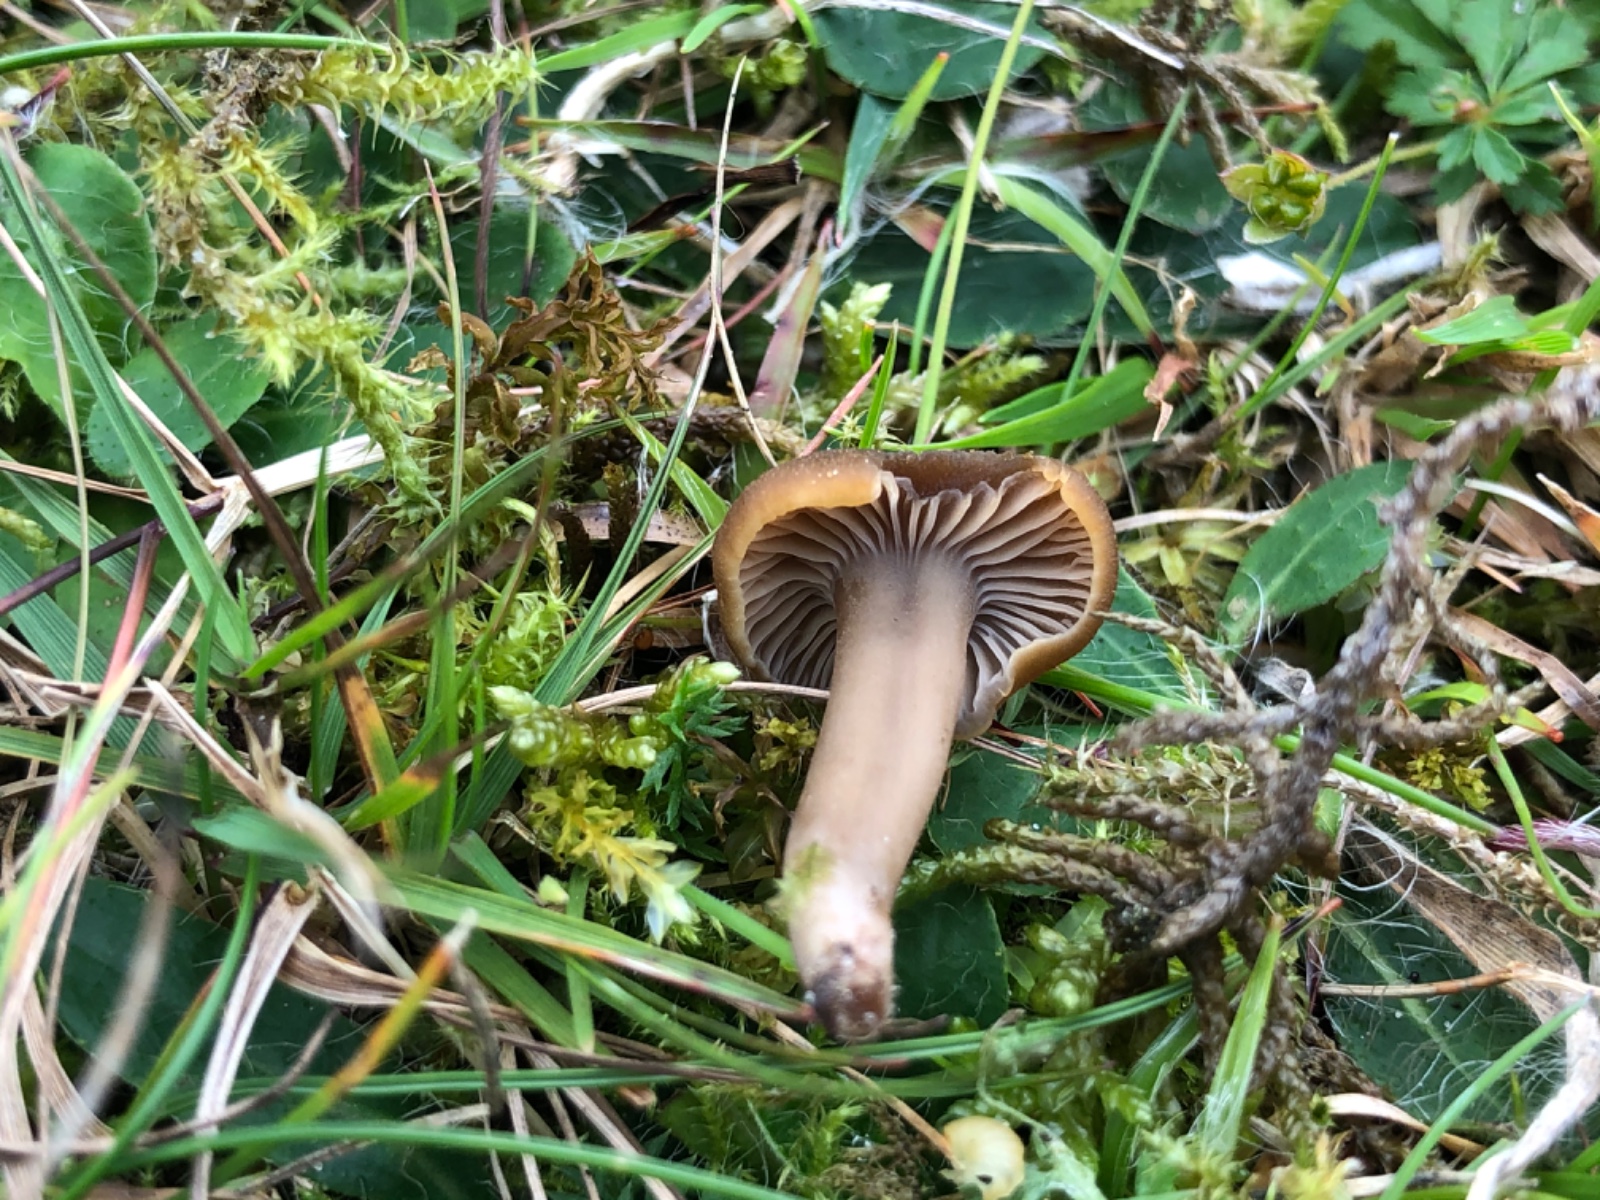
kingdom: Fungi
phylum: Basidiomycota
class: Agaricomycetes
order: Agaricales
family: Clavariaceae
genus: Camarophyllopsis
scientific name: Camarophyllopsis schulzeri
